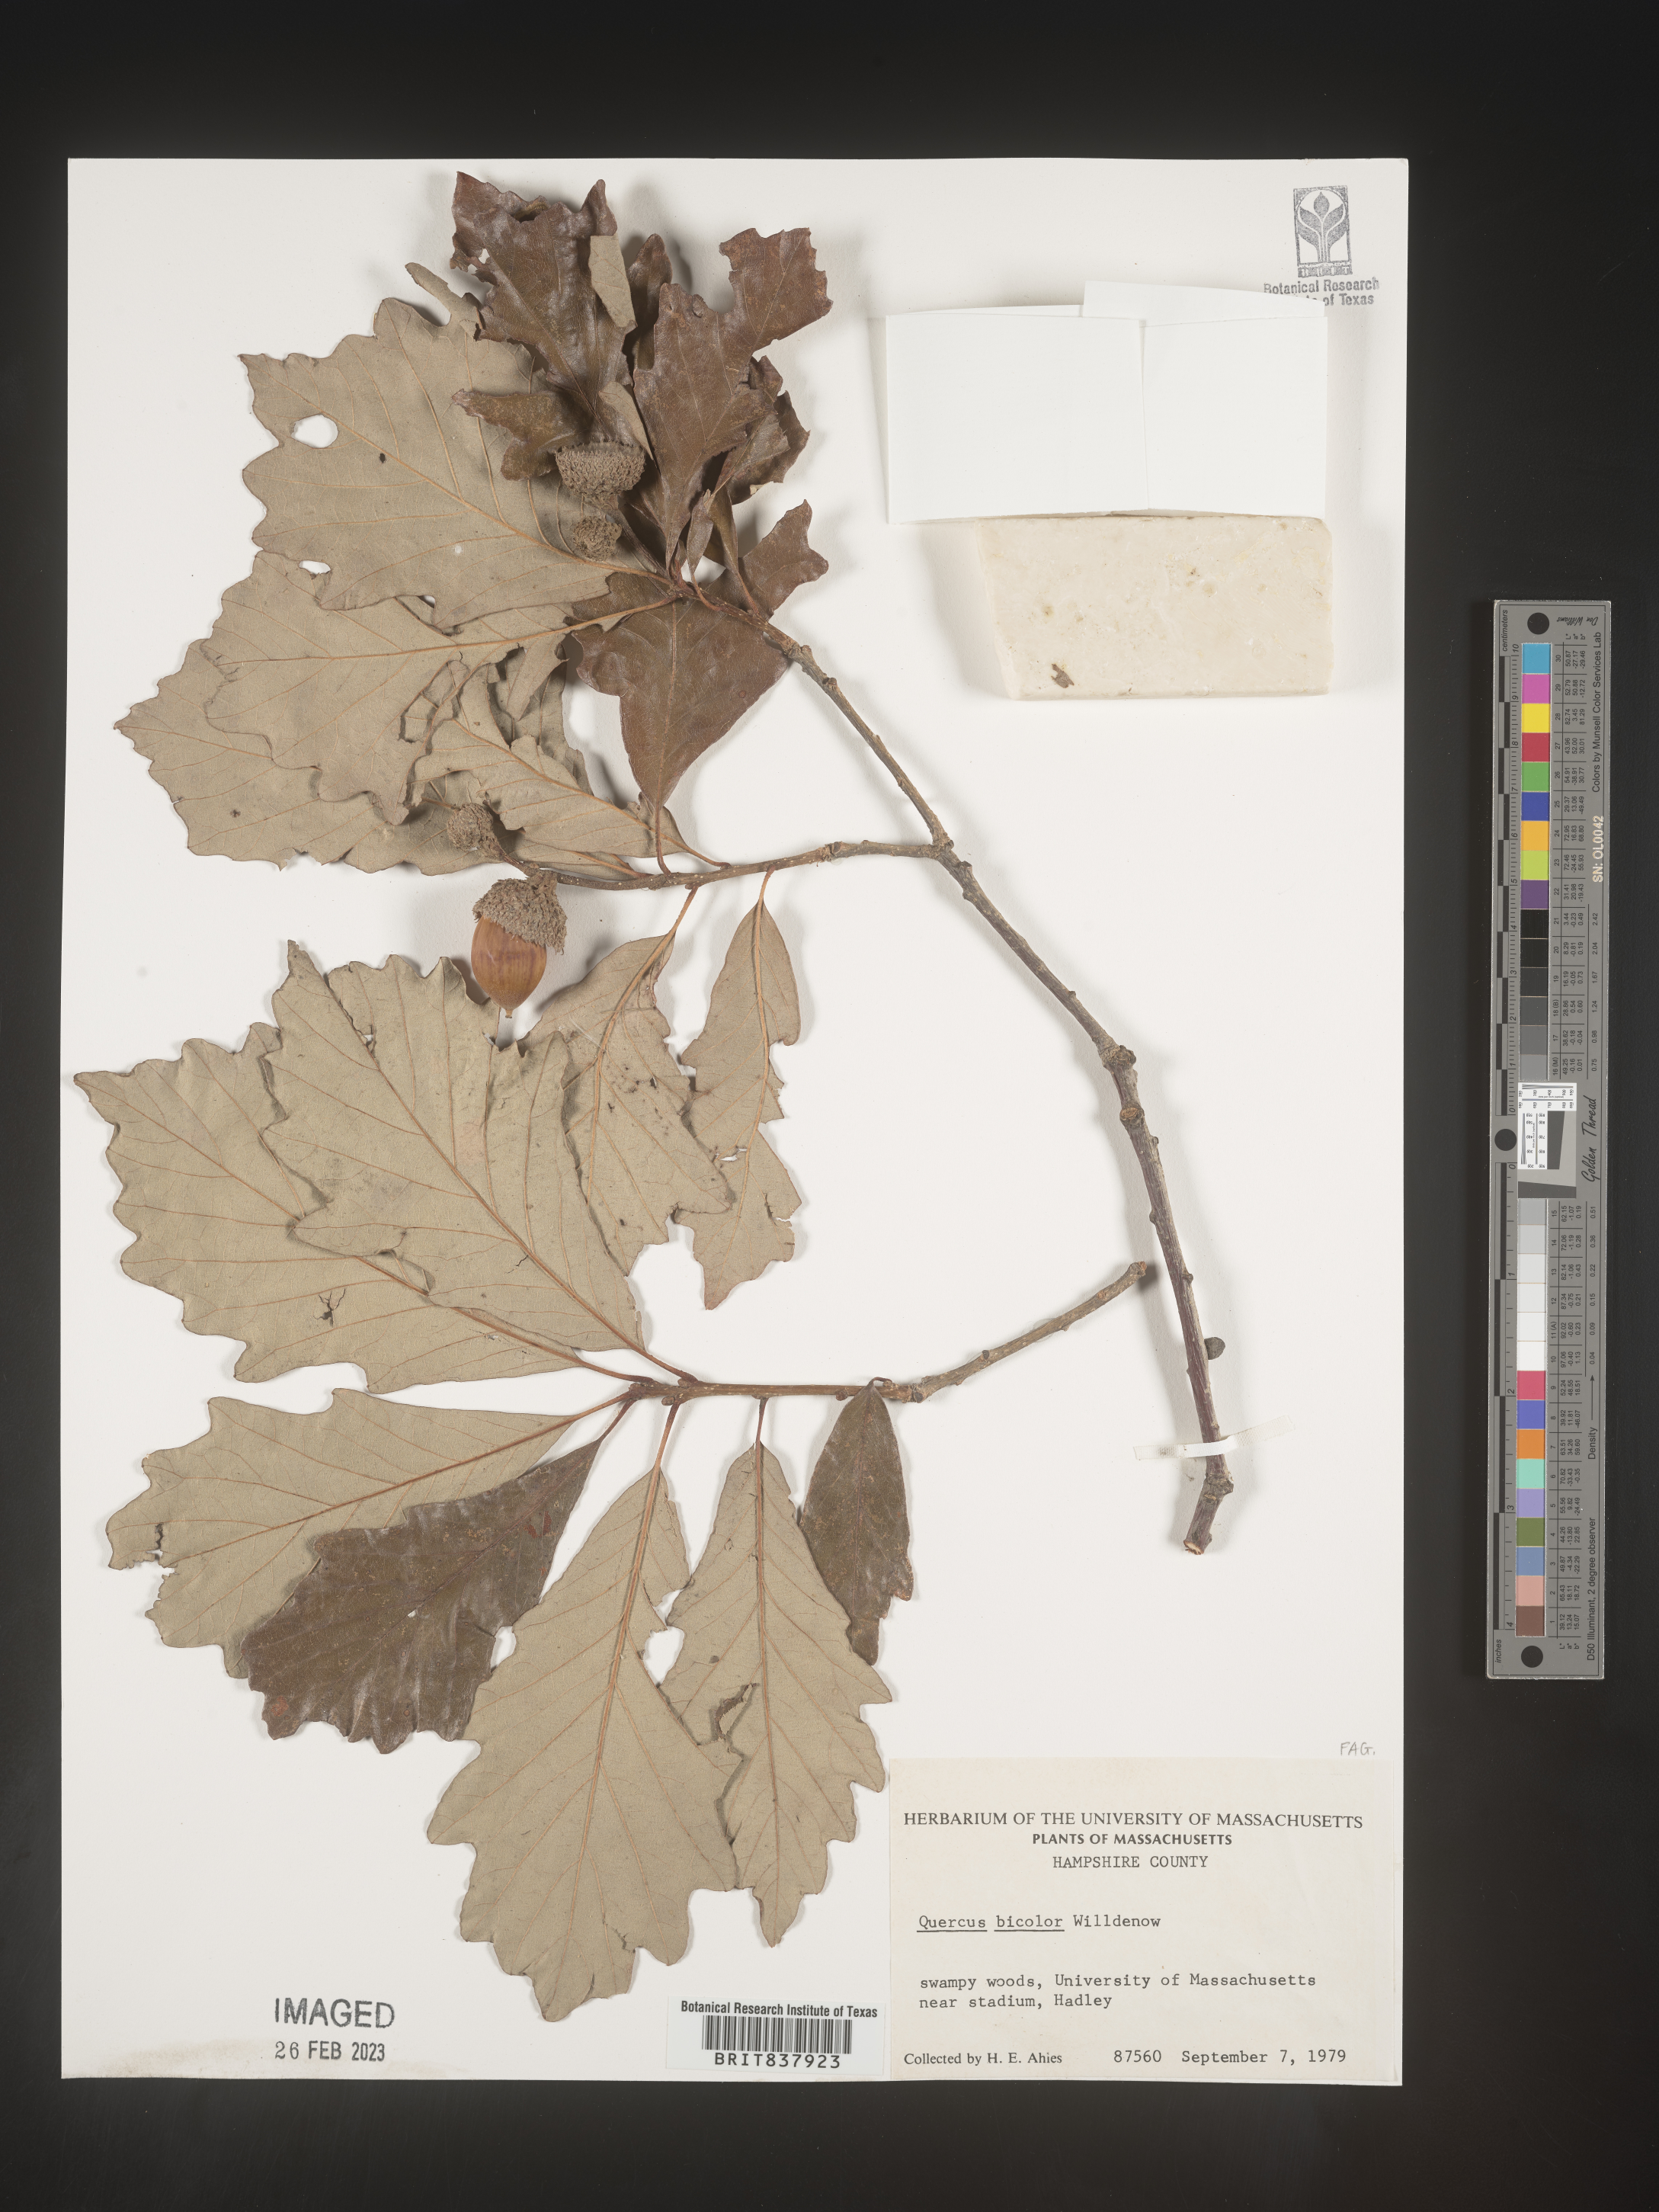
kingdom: Plantae
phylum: Tracheophyta
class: Magnoliopsida
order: Fagales
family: Fagaceae
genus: Quercus
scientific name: Quercus bicolor
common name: Swamp white oak
